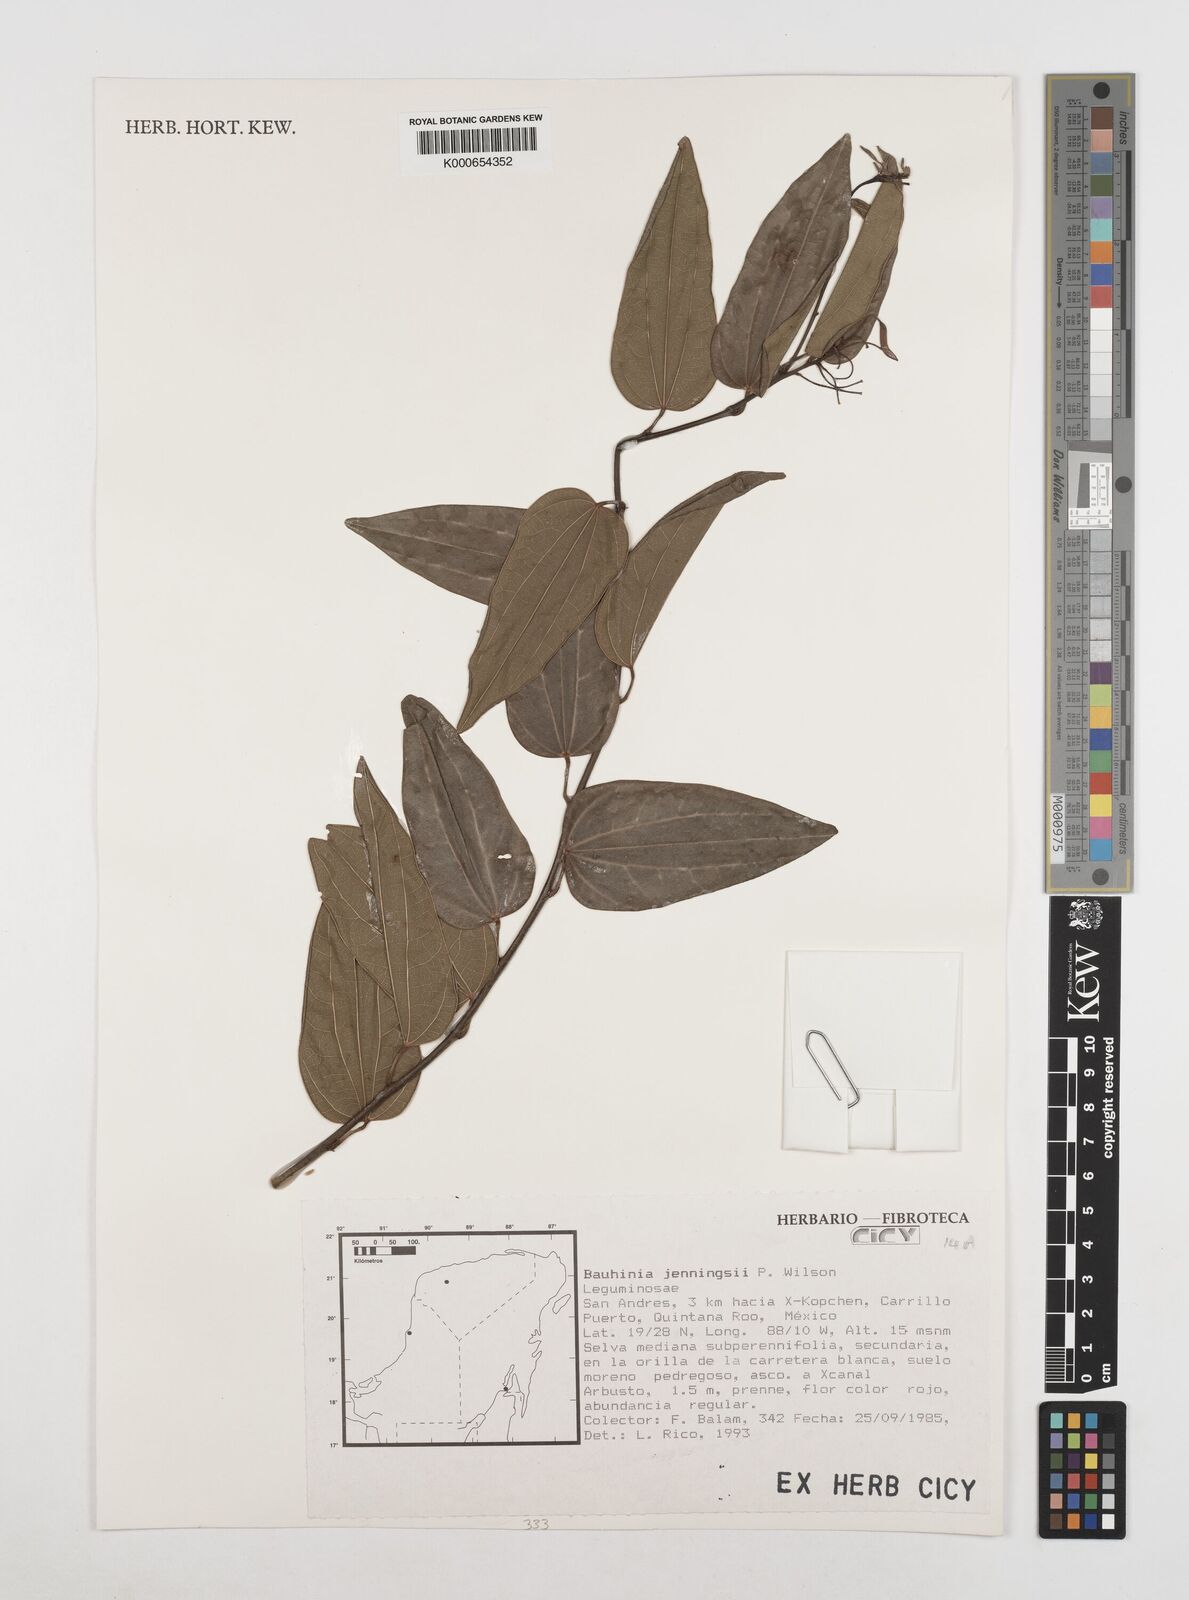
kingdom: Plantae
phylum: Tracheophyta
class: Magnoliopsida
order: Fabales
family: Fabaceae
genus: Bauhinia
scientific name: Bauhinia jenningsii
